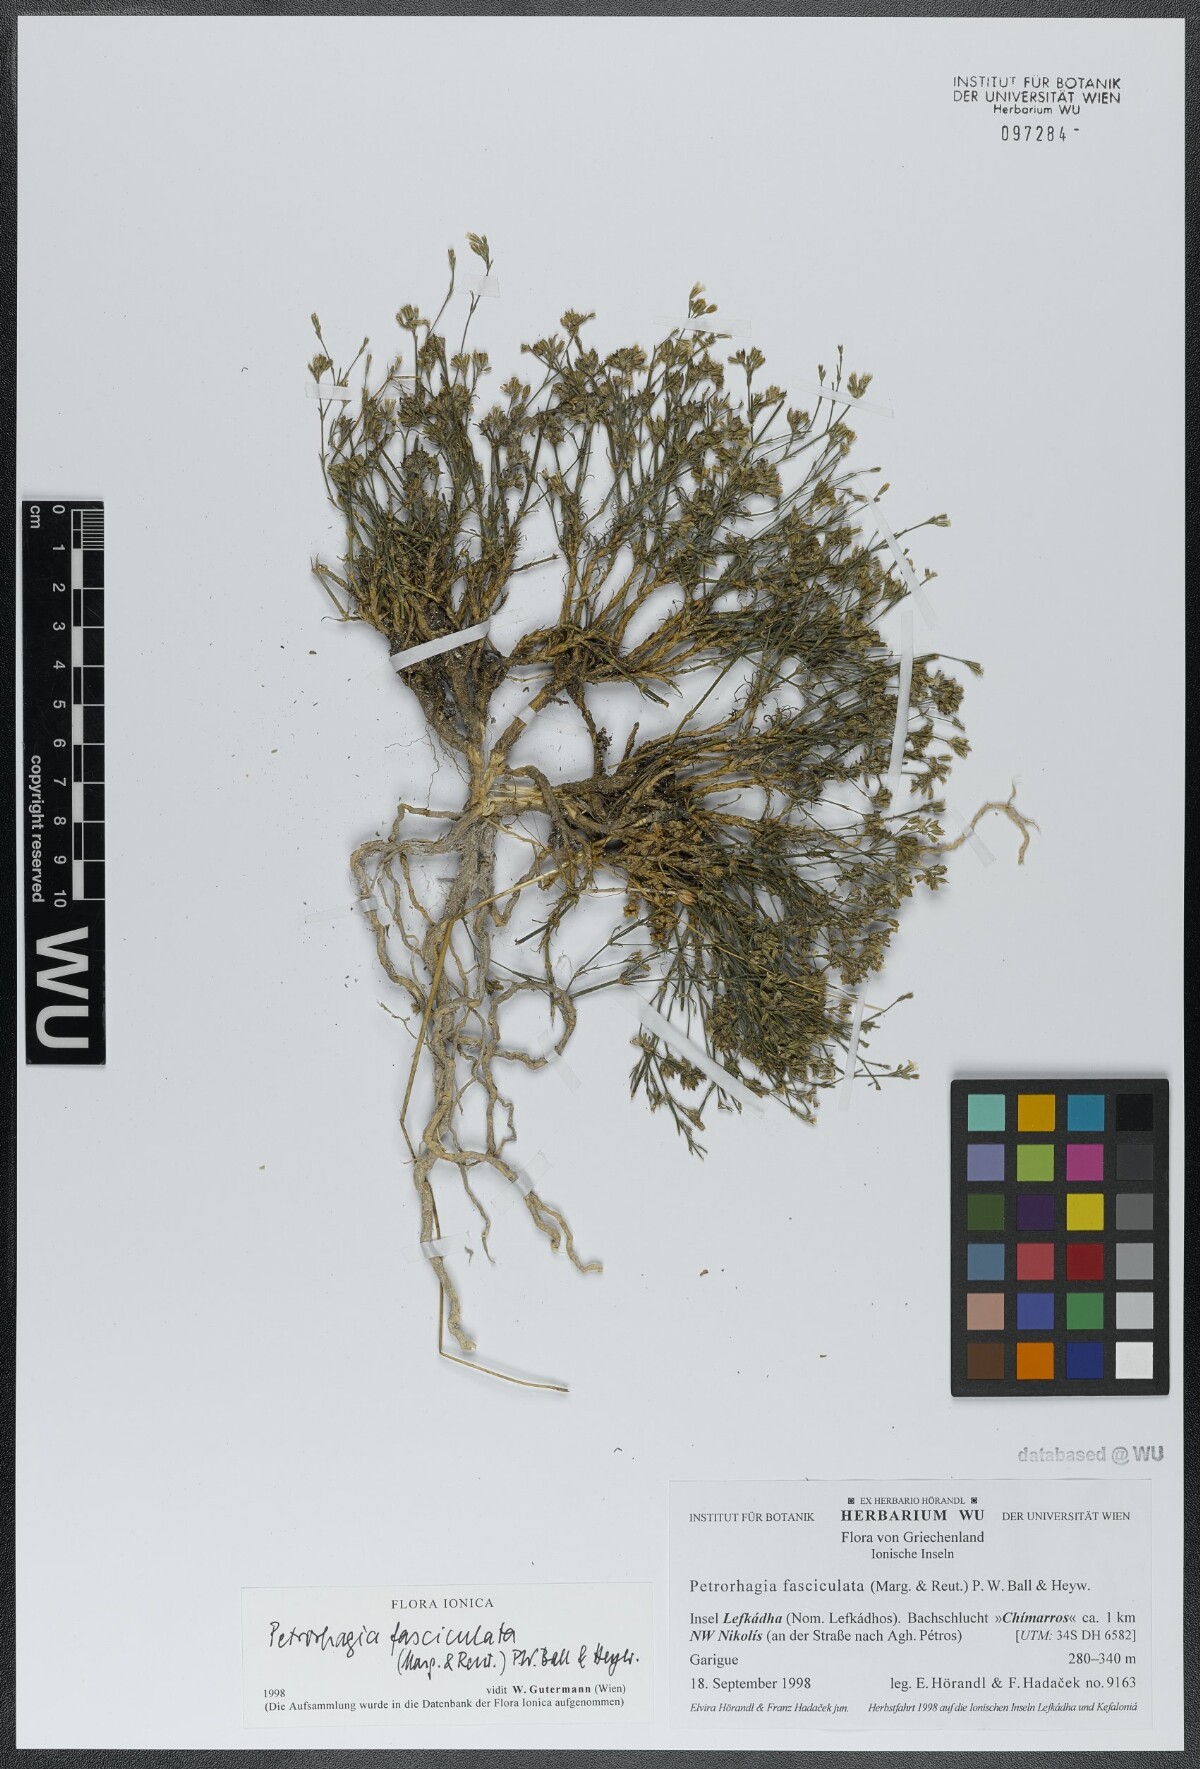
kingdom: Plantae
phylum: Tracheophyta
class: Magnoliopsida
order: Caryophyllales
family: Caryophyllaceae
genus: Petrorhagia
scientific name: Petrorhagia fasciculata
